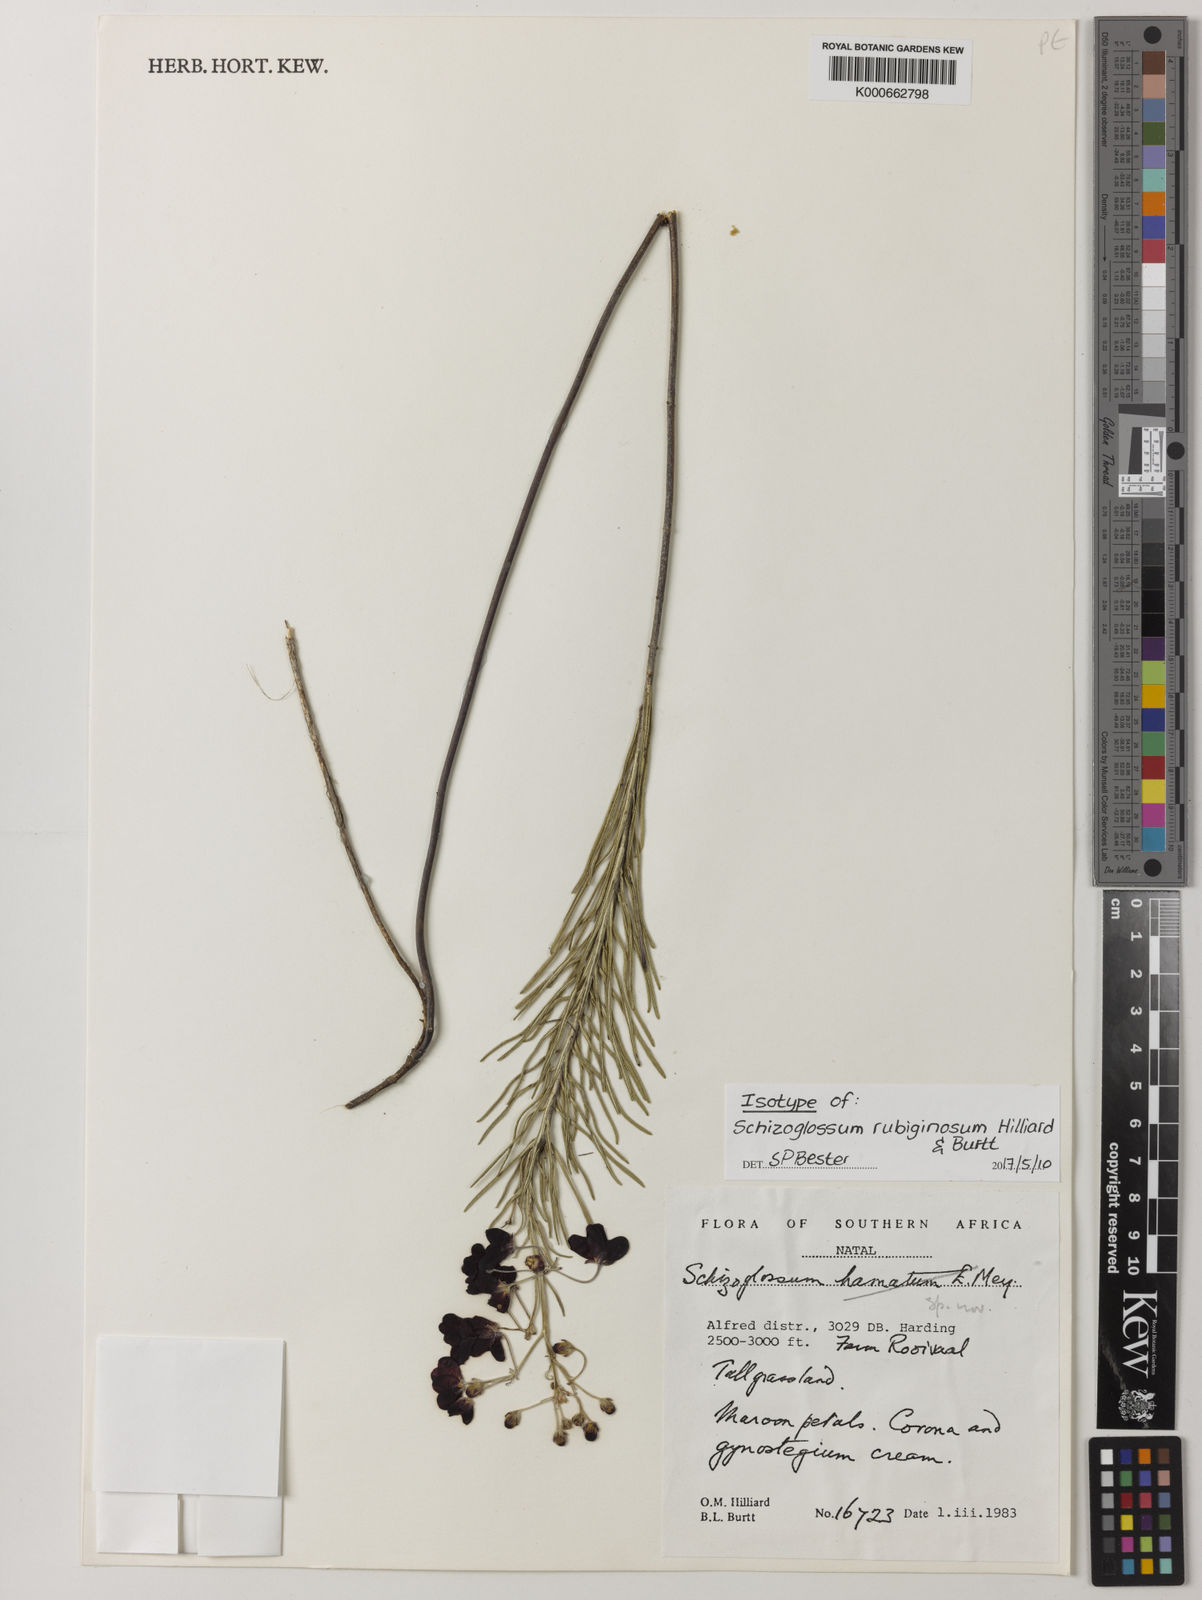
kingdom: Plantae
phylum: Tracheophyta
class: Magnoliopsida
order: Gentianales
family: Apocynaceae
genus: Schizoglossum
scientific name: Schizoglossum rubiginosum
